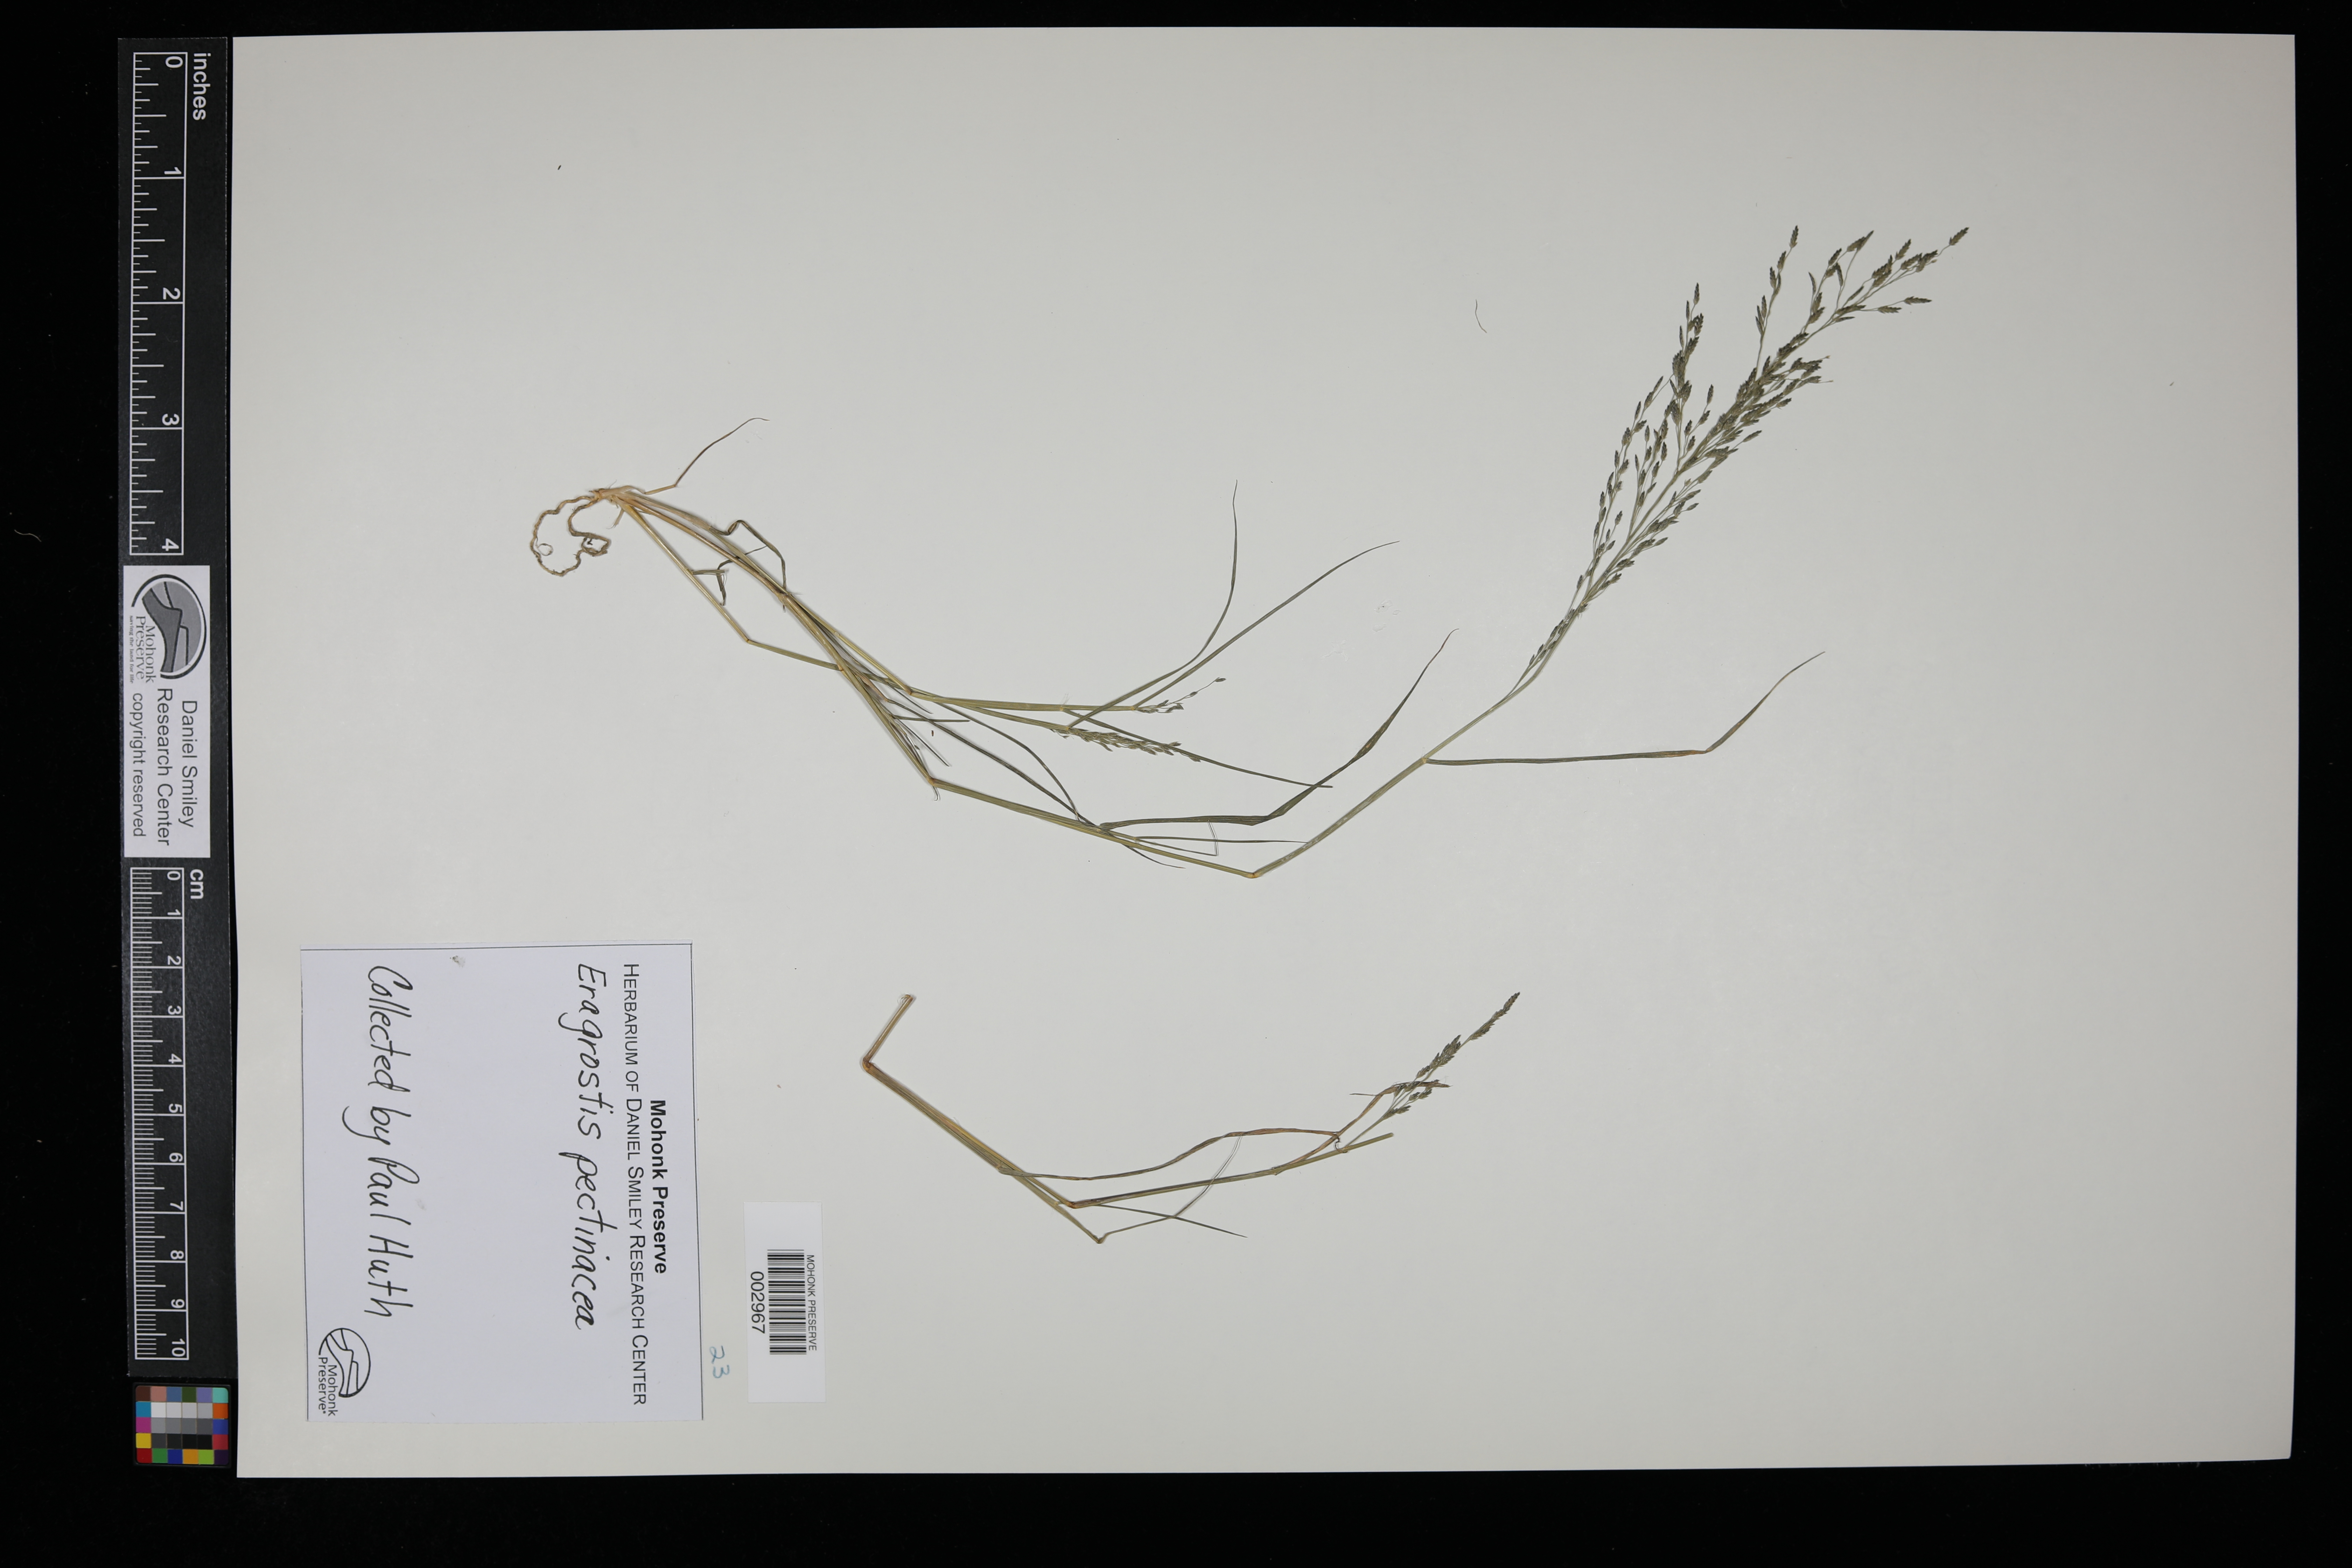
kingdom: Plantae
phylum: Tracheophyta
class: Liliopsida
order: Poales
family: Poaceae
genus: Eragrostis
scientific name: Eragrostis pectinacea
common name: Tufted lovegrass
